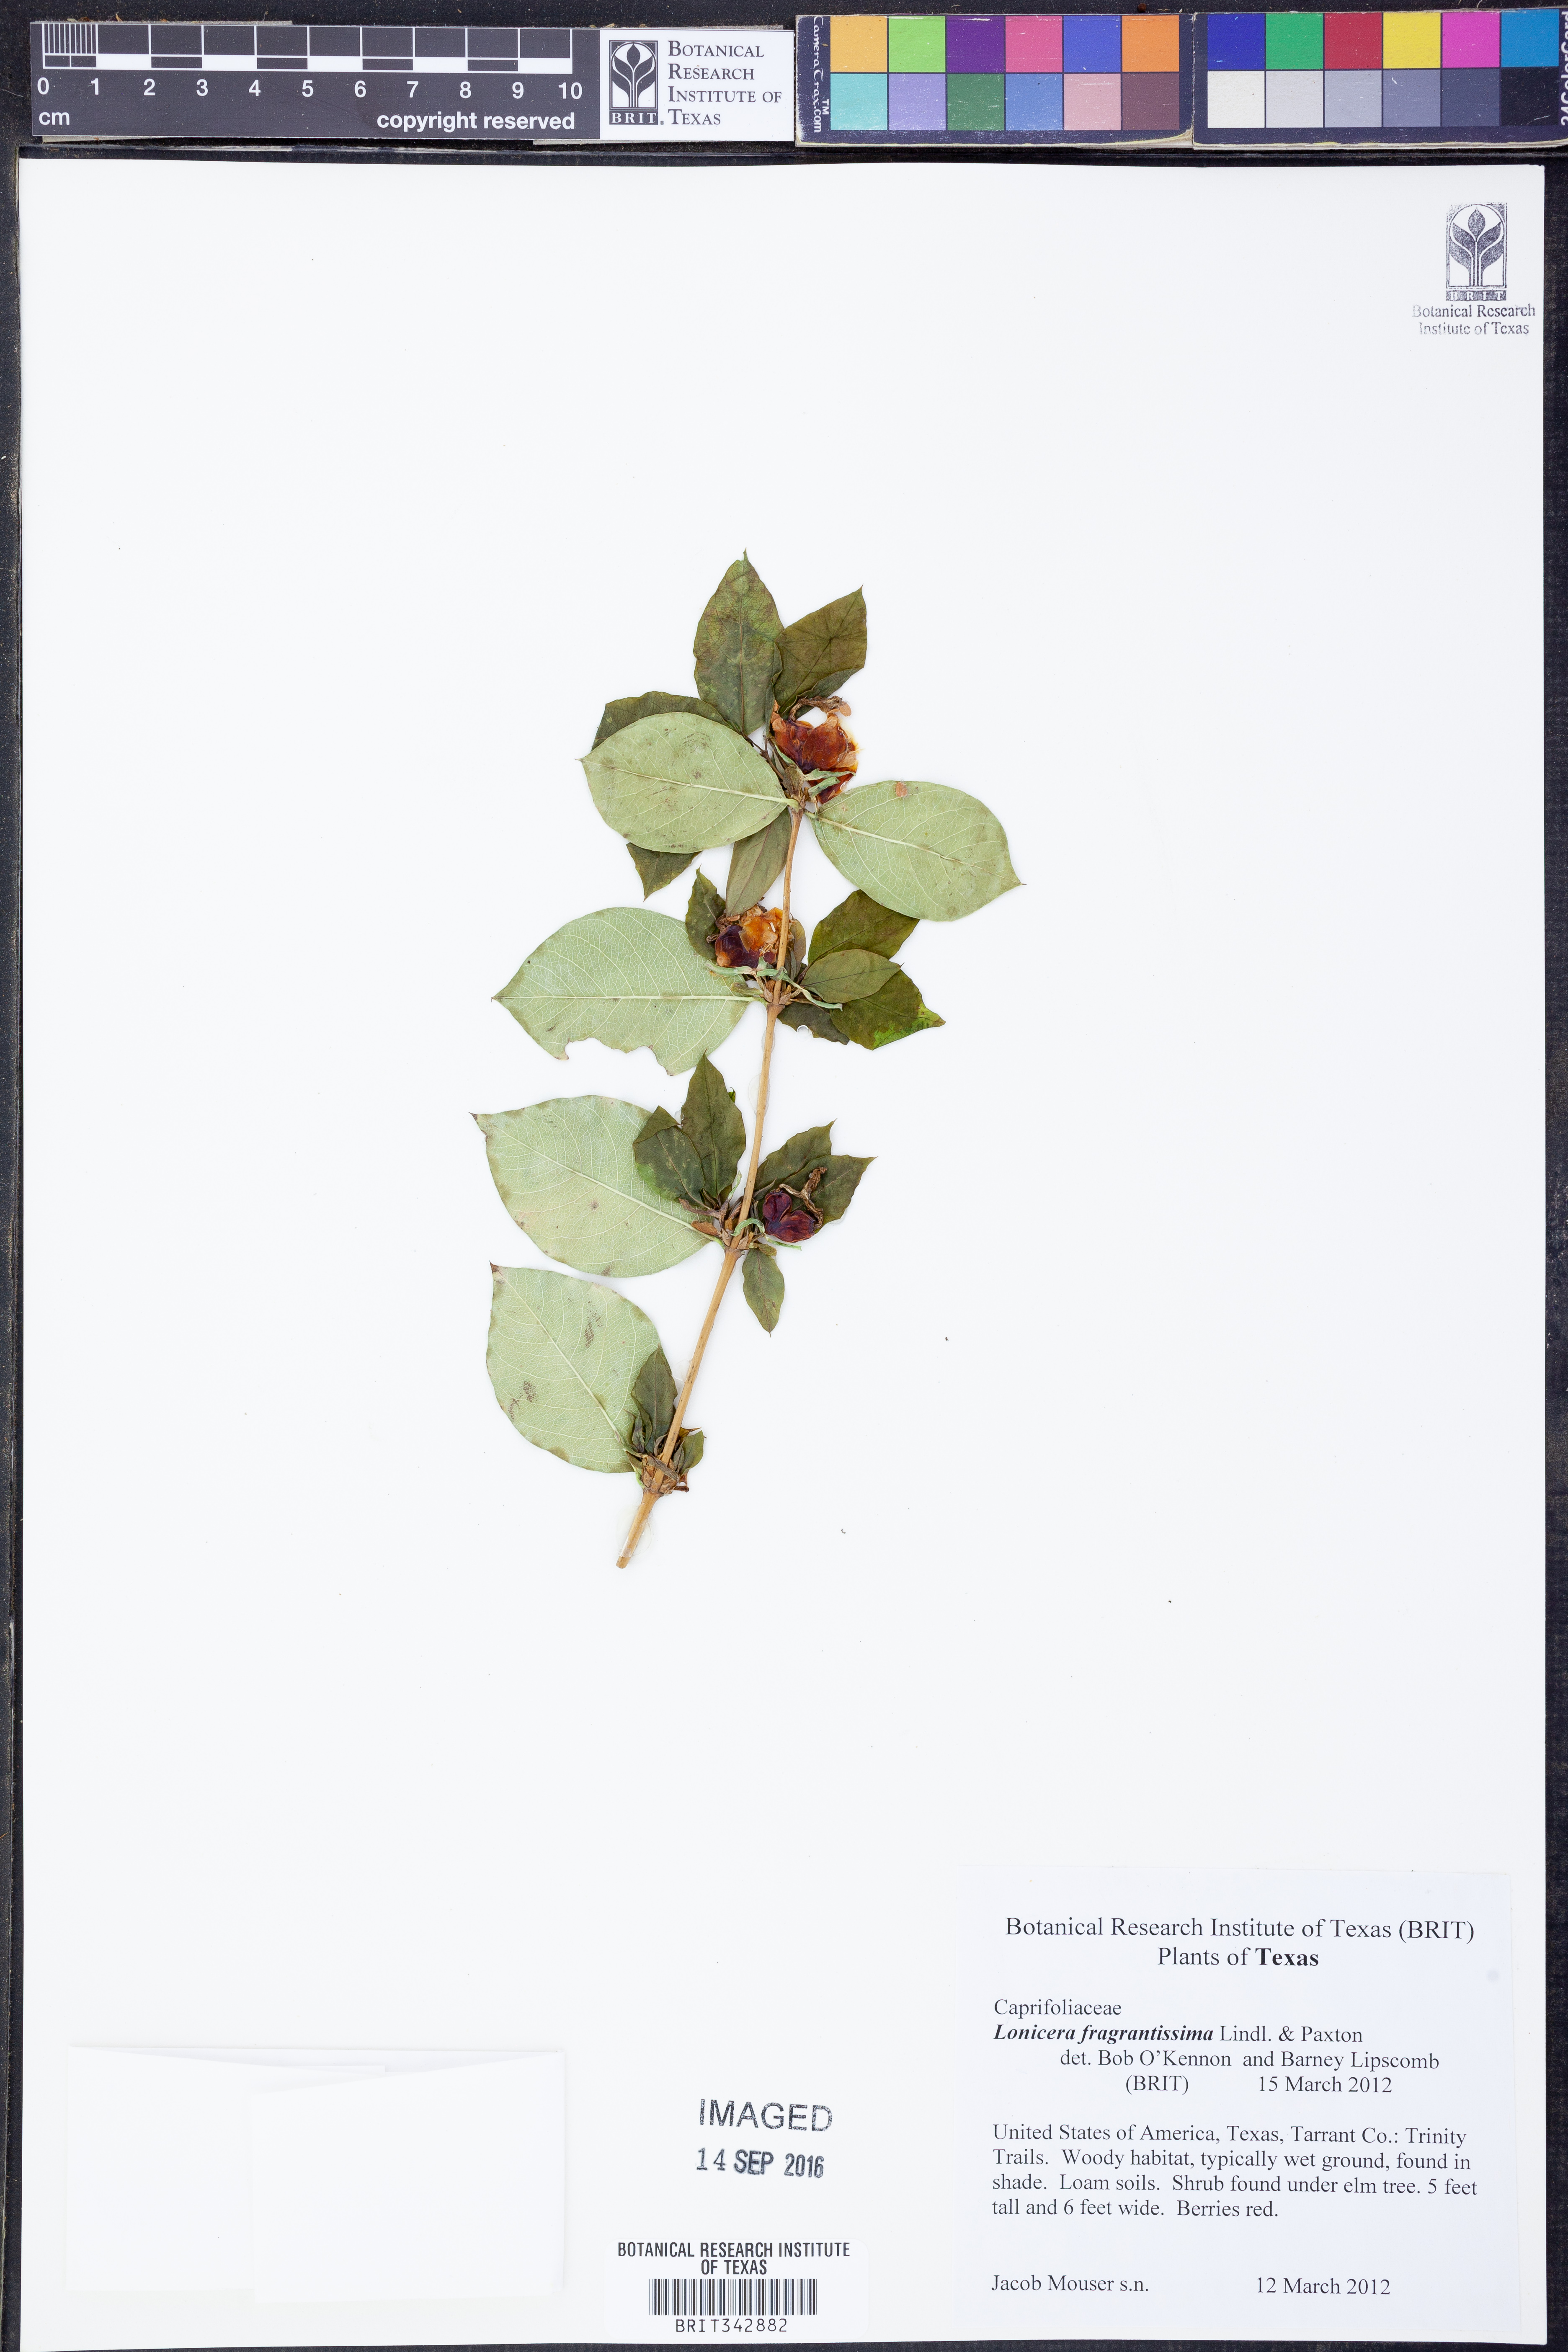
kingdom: Plantae
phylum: Tracheophyta
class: Magnoliopsida
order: Dipsacales
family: Caprifoliaceae
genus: Lonicera
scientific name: Lonicera fragrantissima
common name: Fragrant honeysuckle
